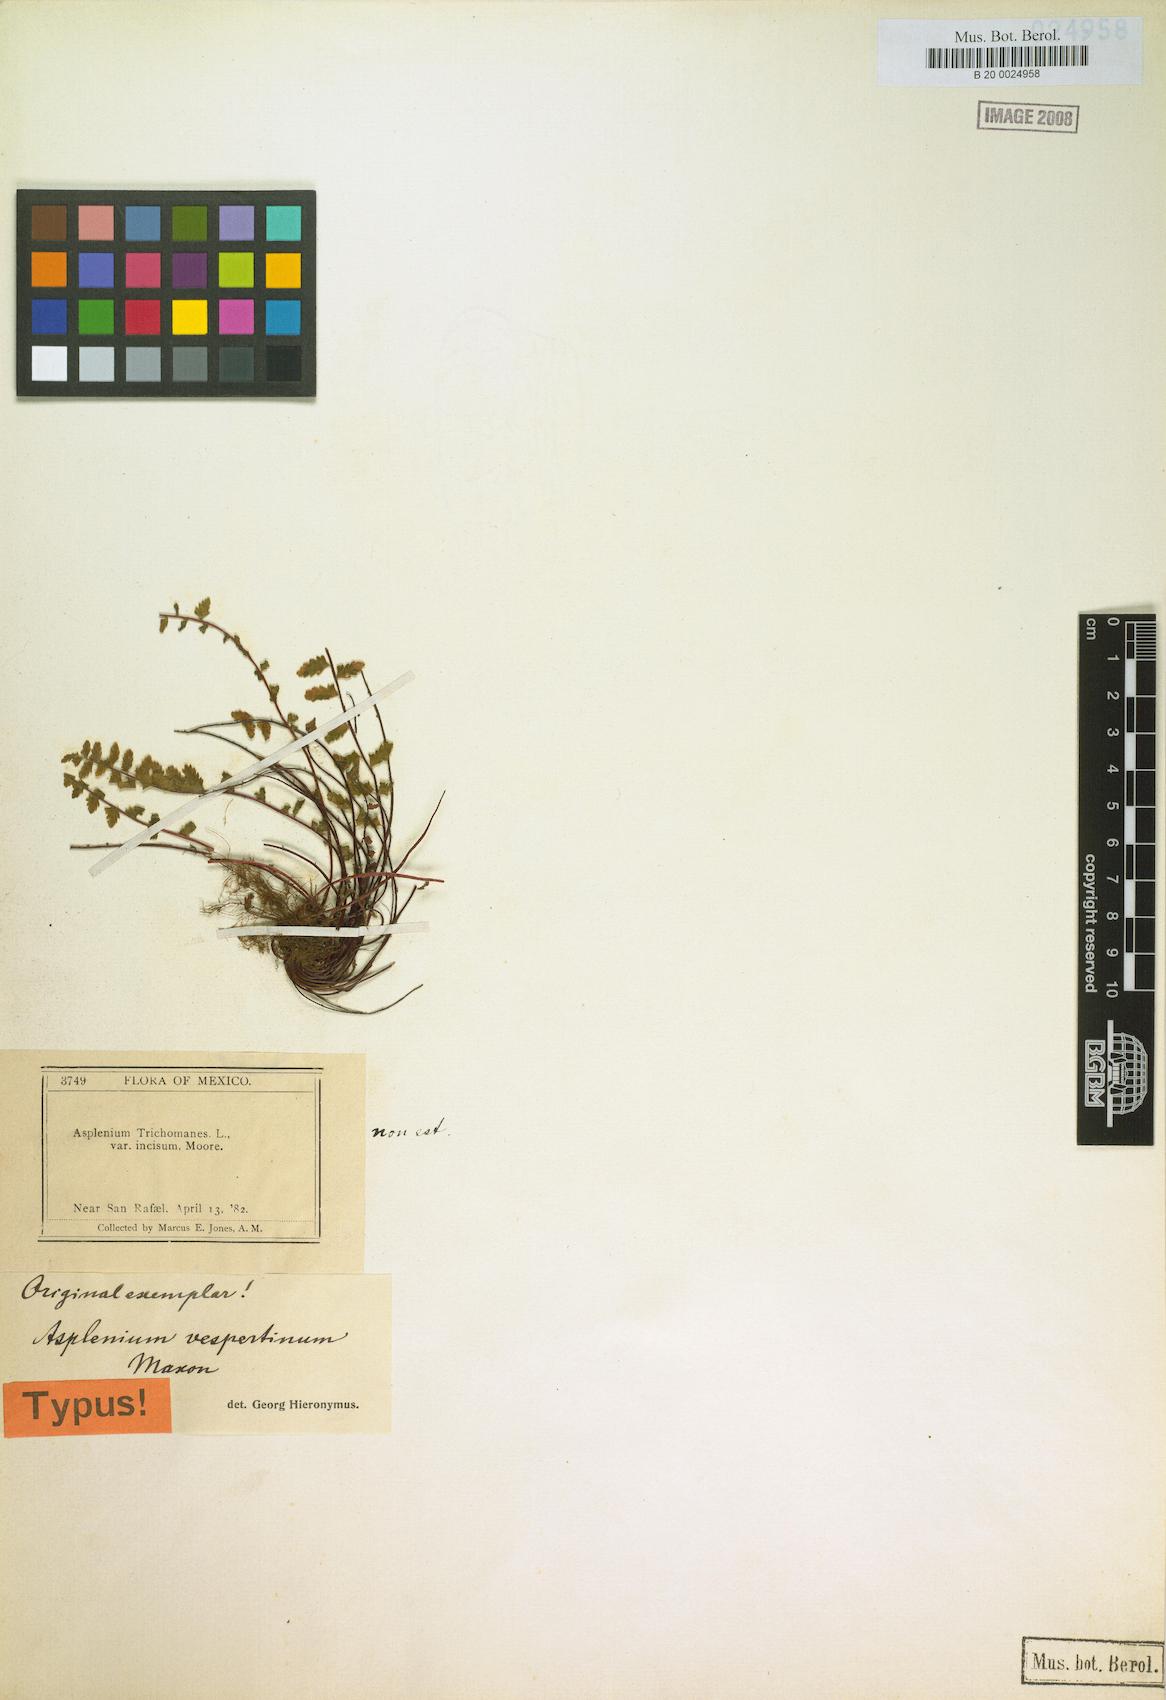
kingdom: Plantae
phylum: Tracheophyta
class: Polypodiopsida
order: Polypodiales
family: Aspleniaceae
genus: Asplenium
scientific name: Asplenium vespertinum
